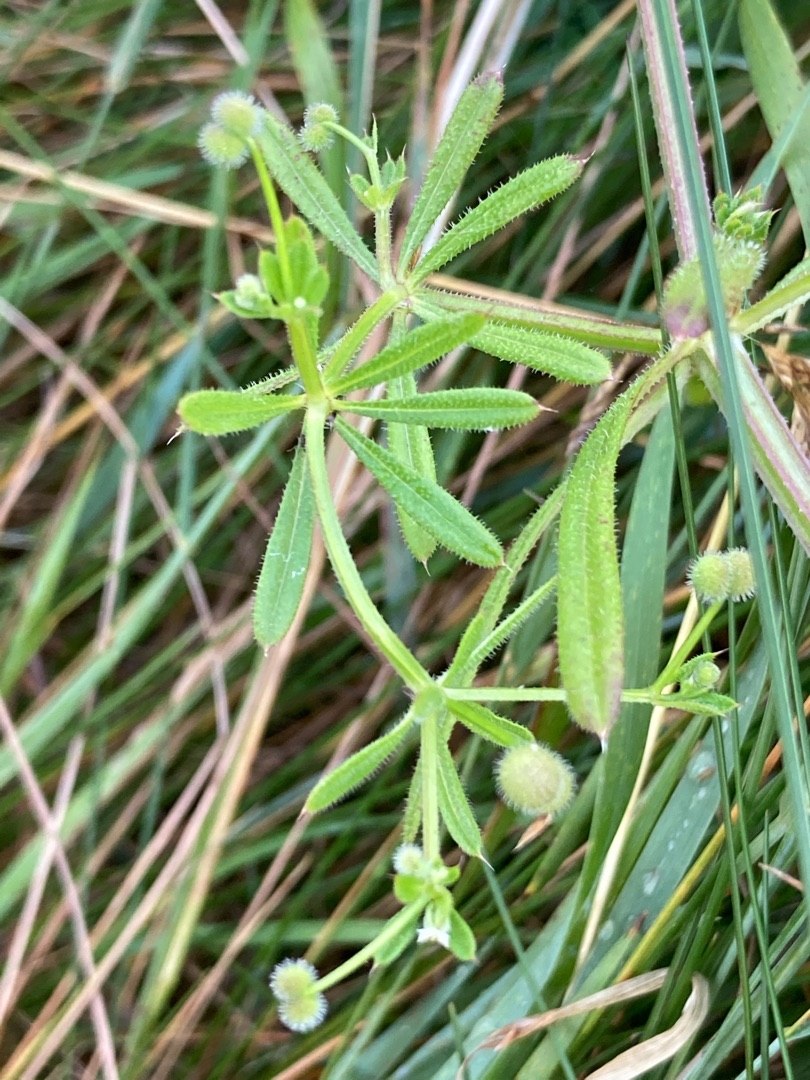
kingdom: Plantae
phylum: Tracheophyta
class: Magnoliopsida
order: Gentianales
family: Rubiaceae
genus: Galium
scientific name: Galium aparine
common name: Burre-snerre
